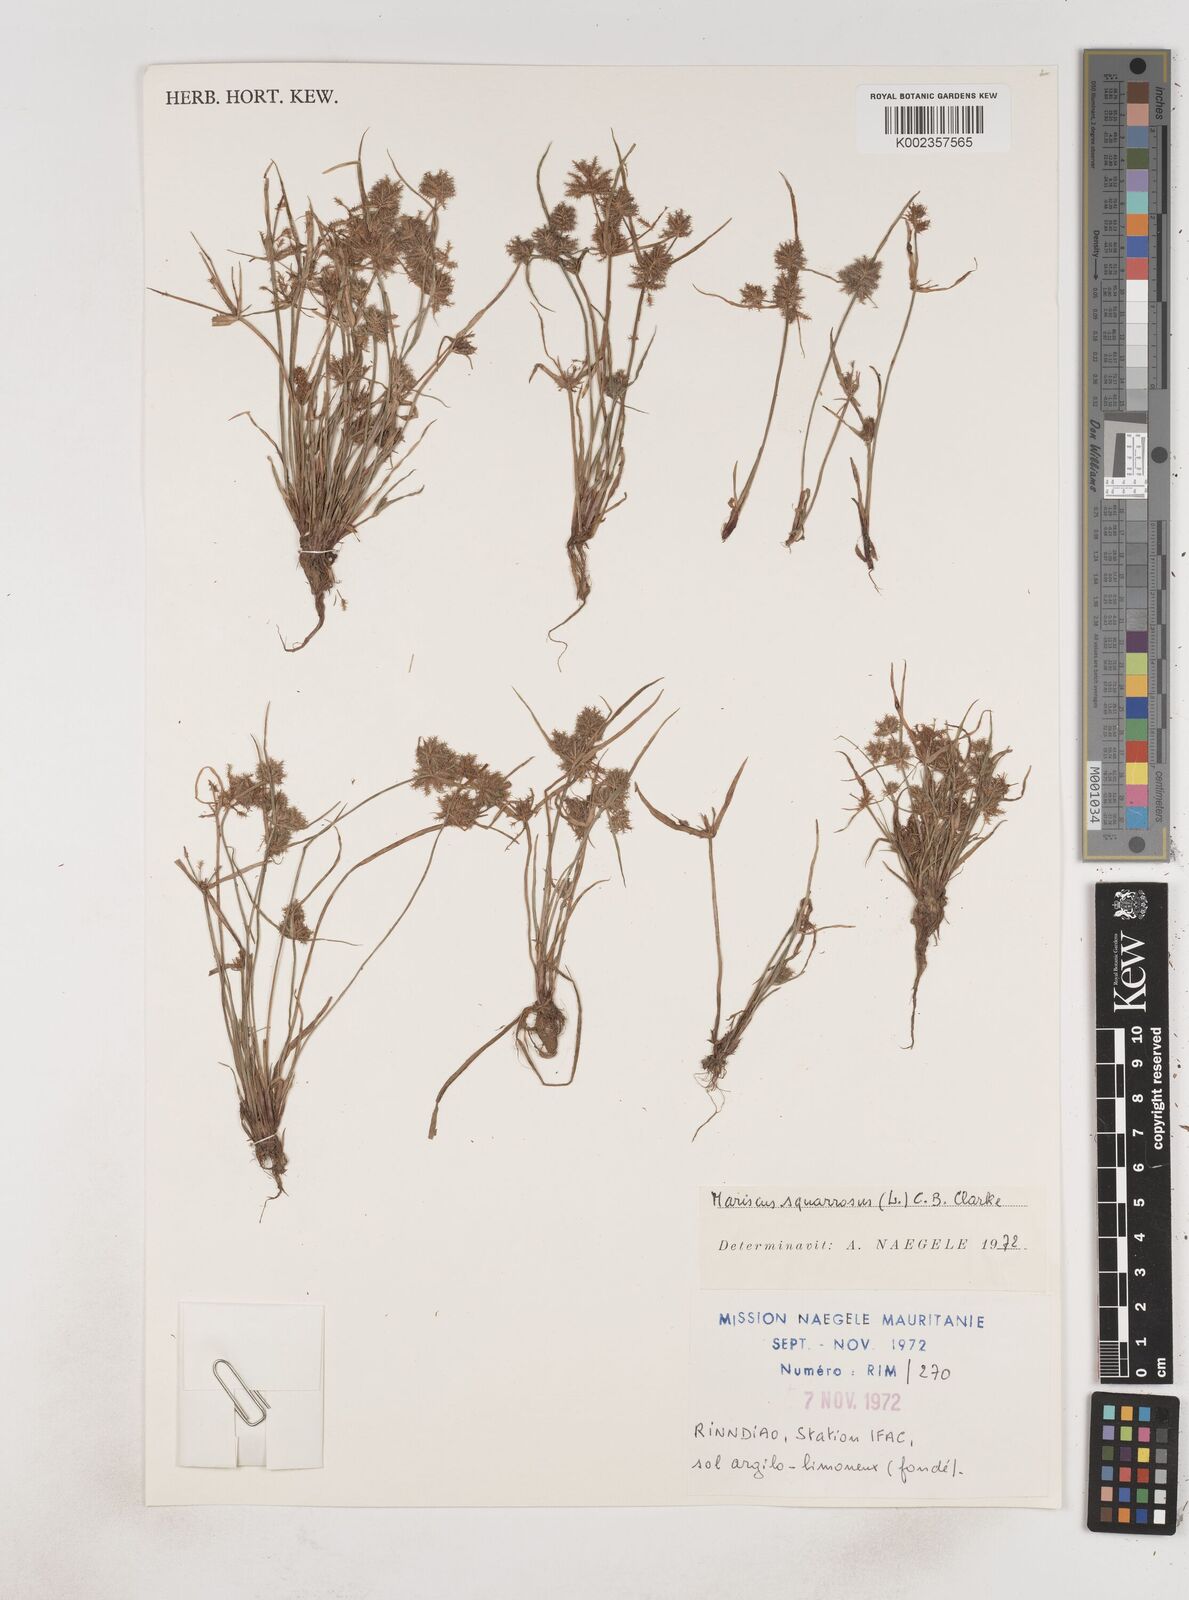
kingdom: Plantae
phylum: Tracheophyta
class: Liliopsida
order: Poales
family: Cyperaceae
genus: Cyperus
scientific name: Cyperus squarrosus
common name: Awned cyperus
